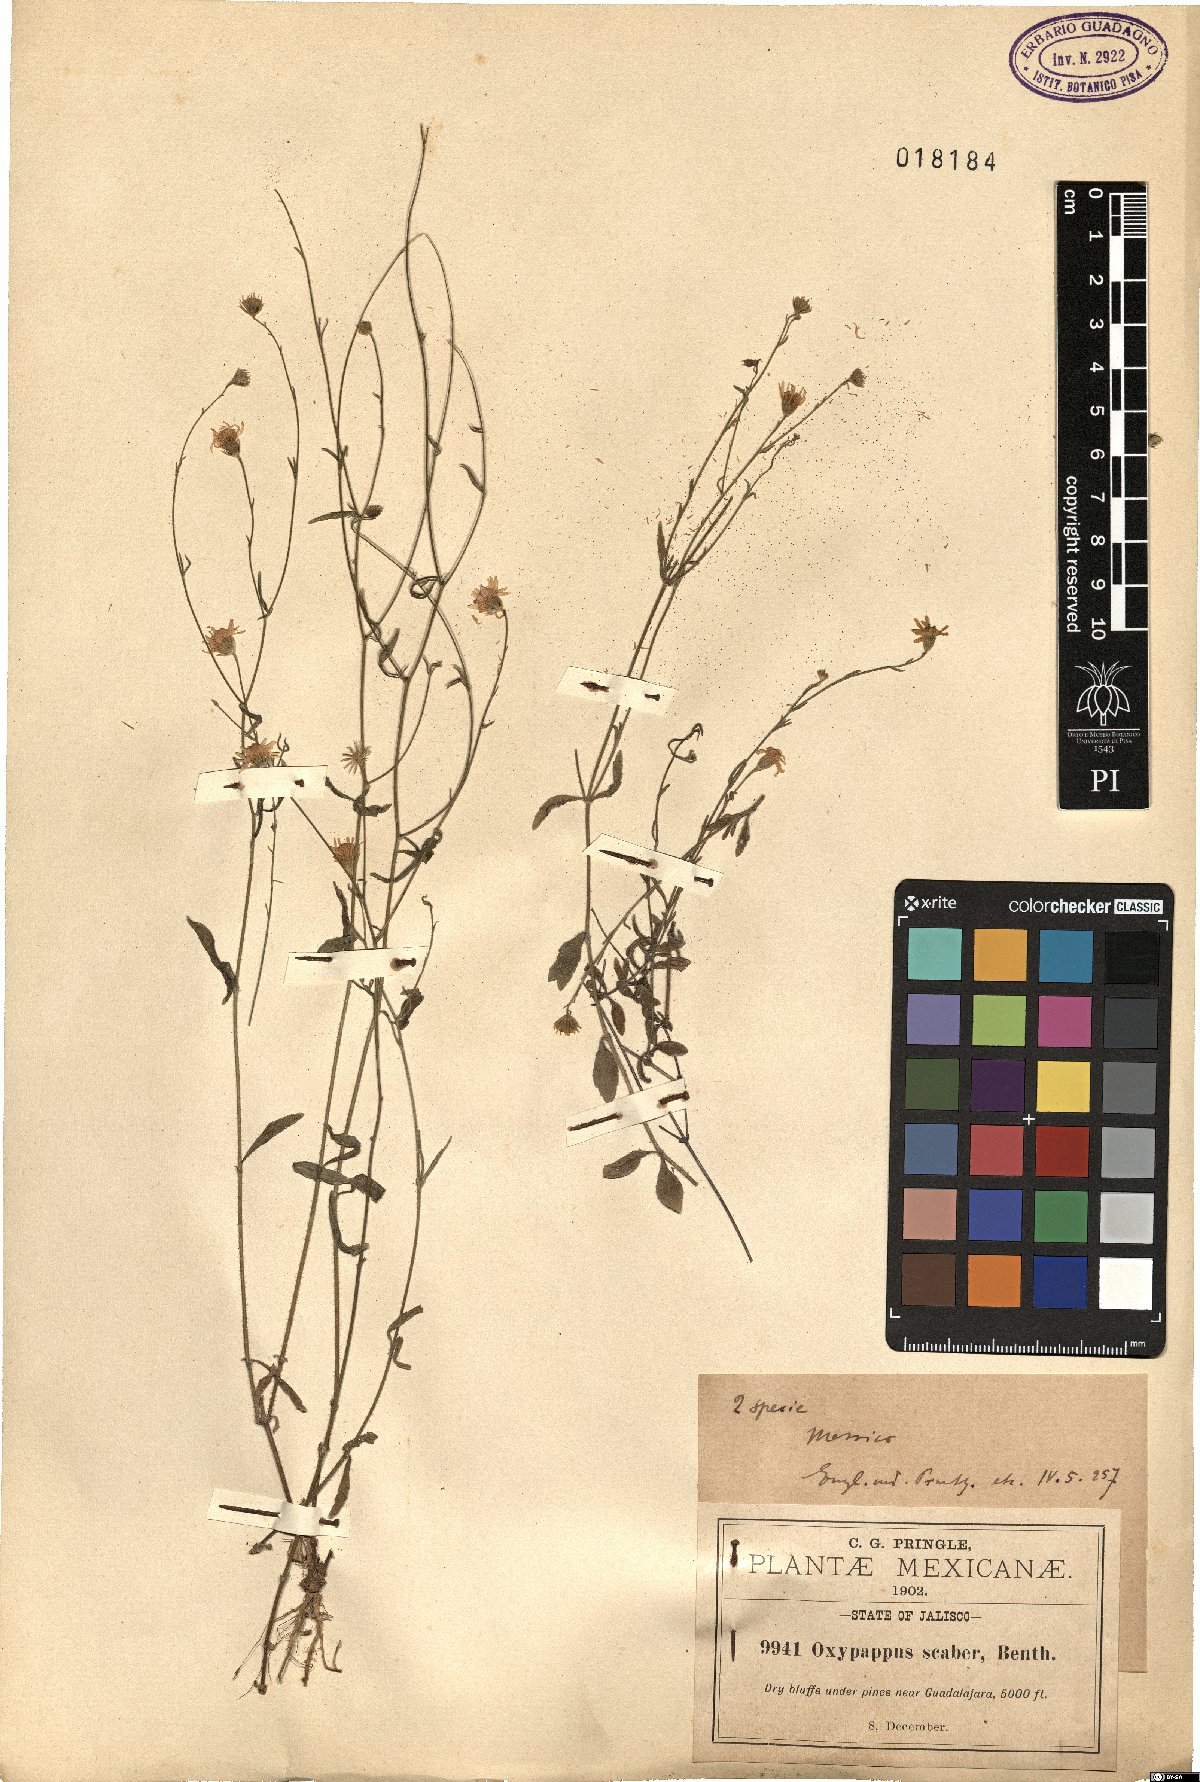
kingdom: Plantae
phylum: Tracheophyta
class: Magnoliopsida
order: Asterales
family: Asteraceae
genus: Oxypappus
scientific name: Oxypappus scaber
